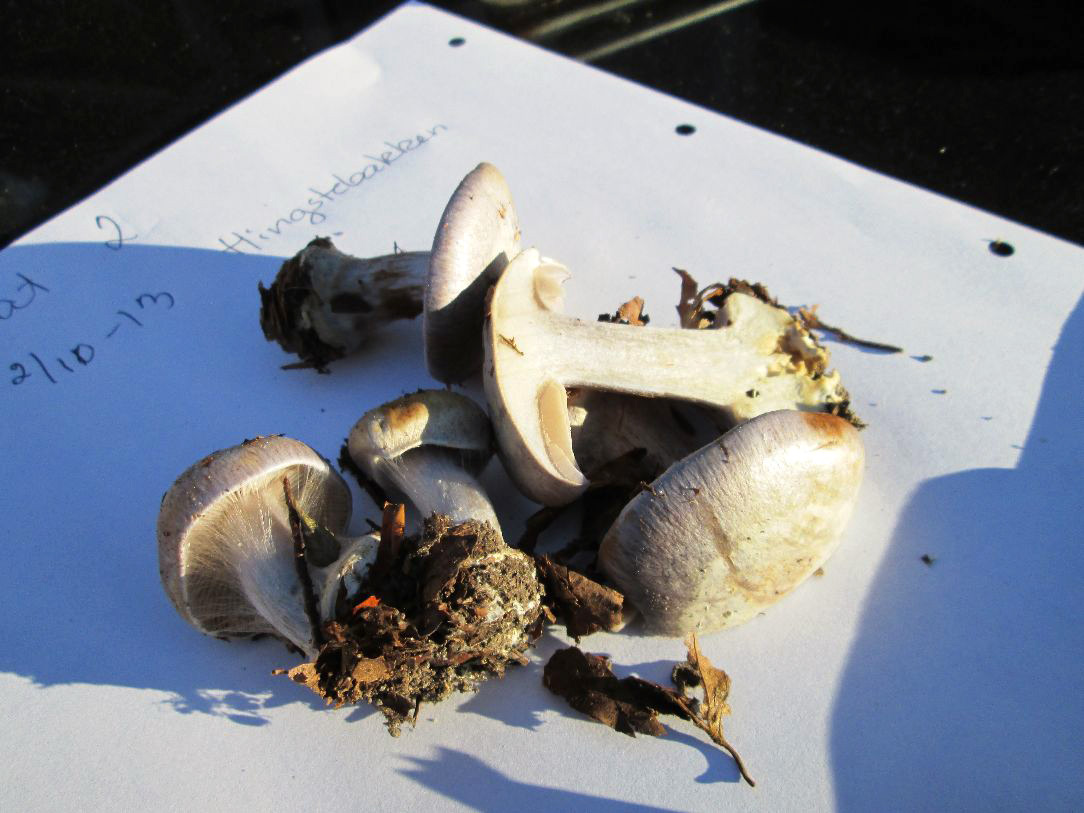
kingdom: Fungi
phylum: Basidiomycota
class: Agaricomycetes
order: Agaricales
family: Cortinariaceae
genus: Cortinarius
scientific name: Cortinarius caerulescens
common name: blåkødet slørhat
